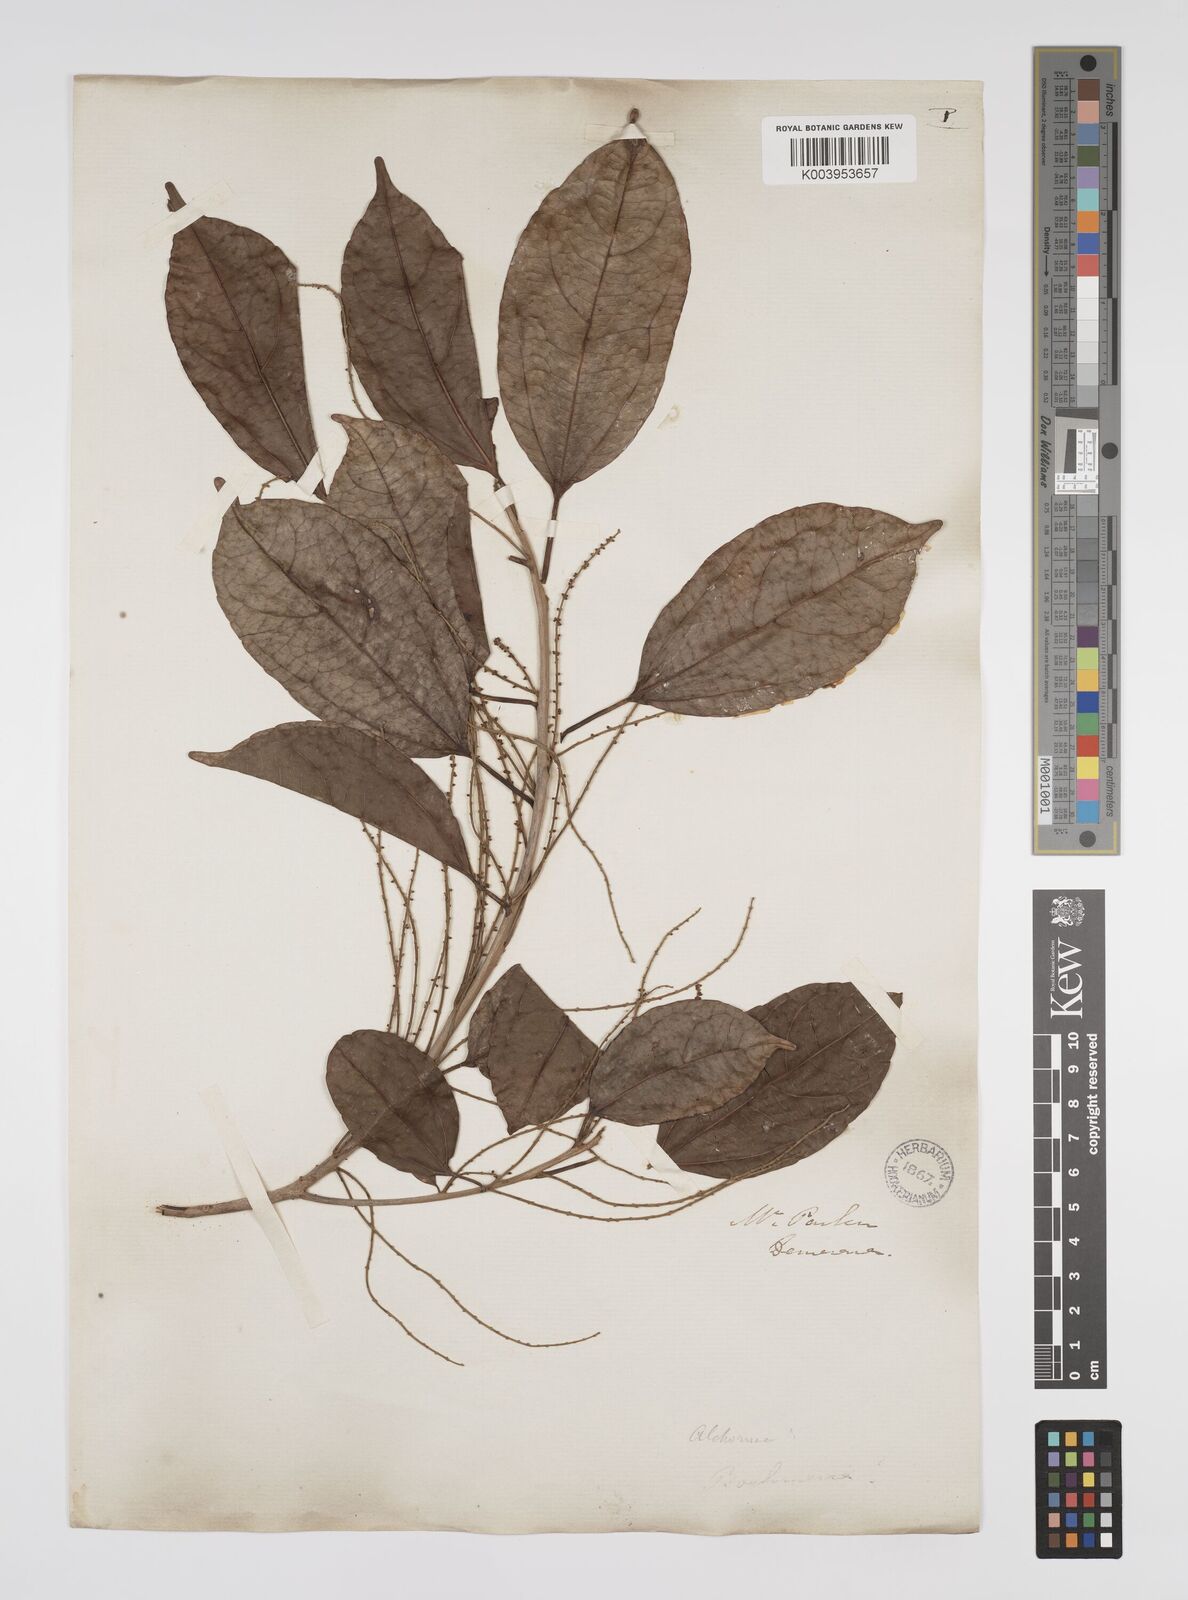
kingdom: Plantae
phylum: Tracheophyta
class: Magnoliopsida
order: Malpighiales
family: Euphorbiaceae
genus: Alchorneopsis
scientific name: Alchorneopsis floribunda
